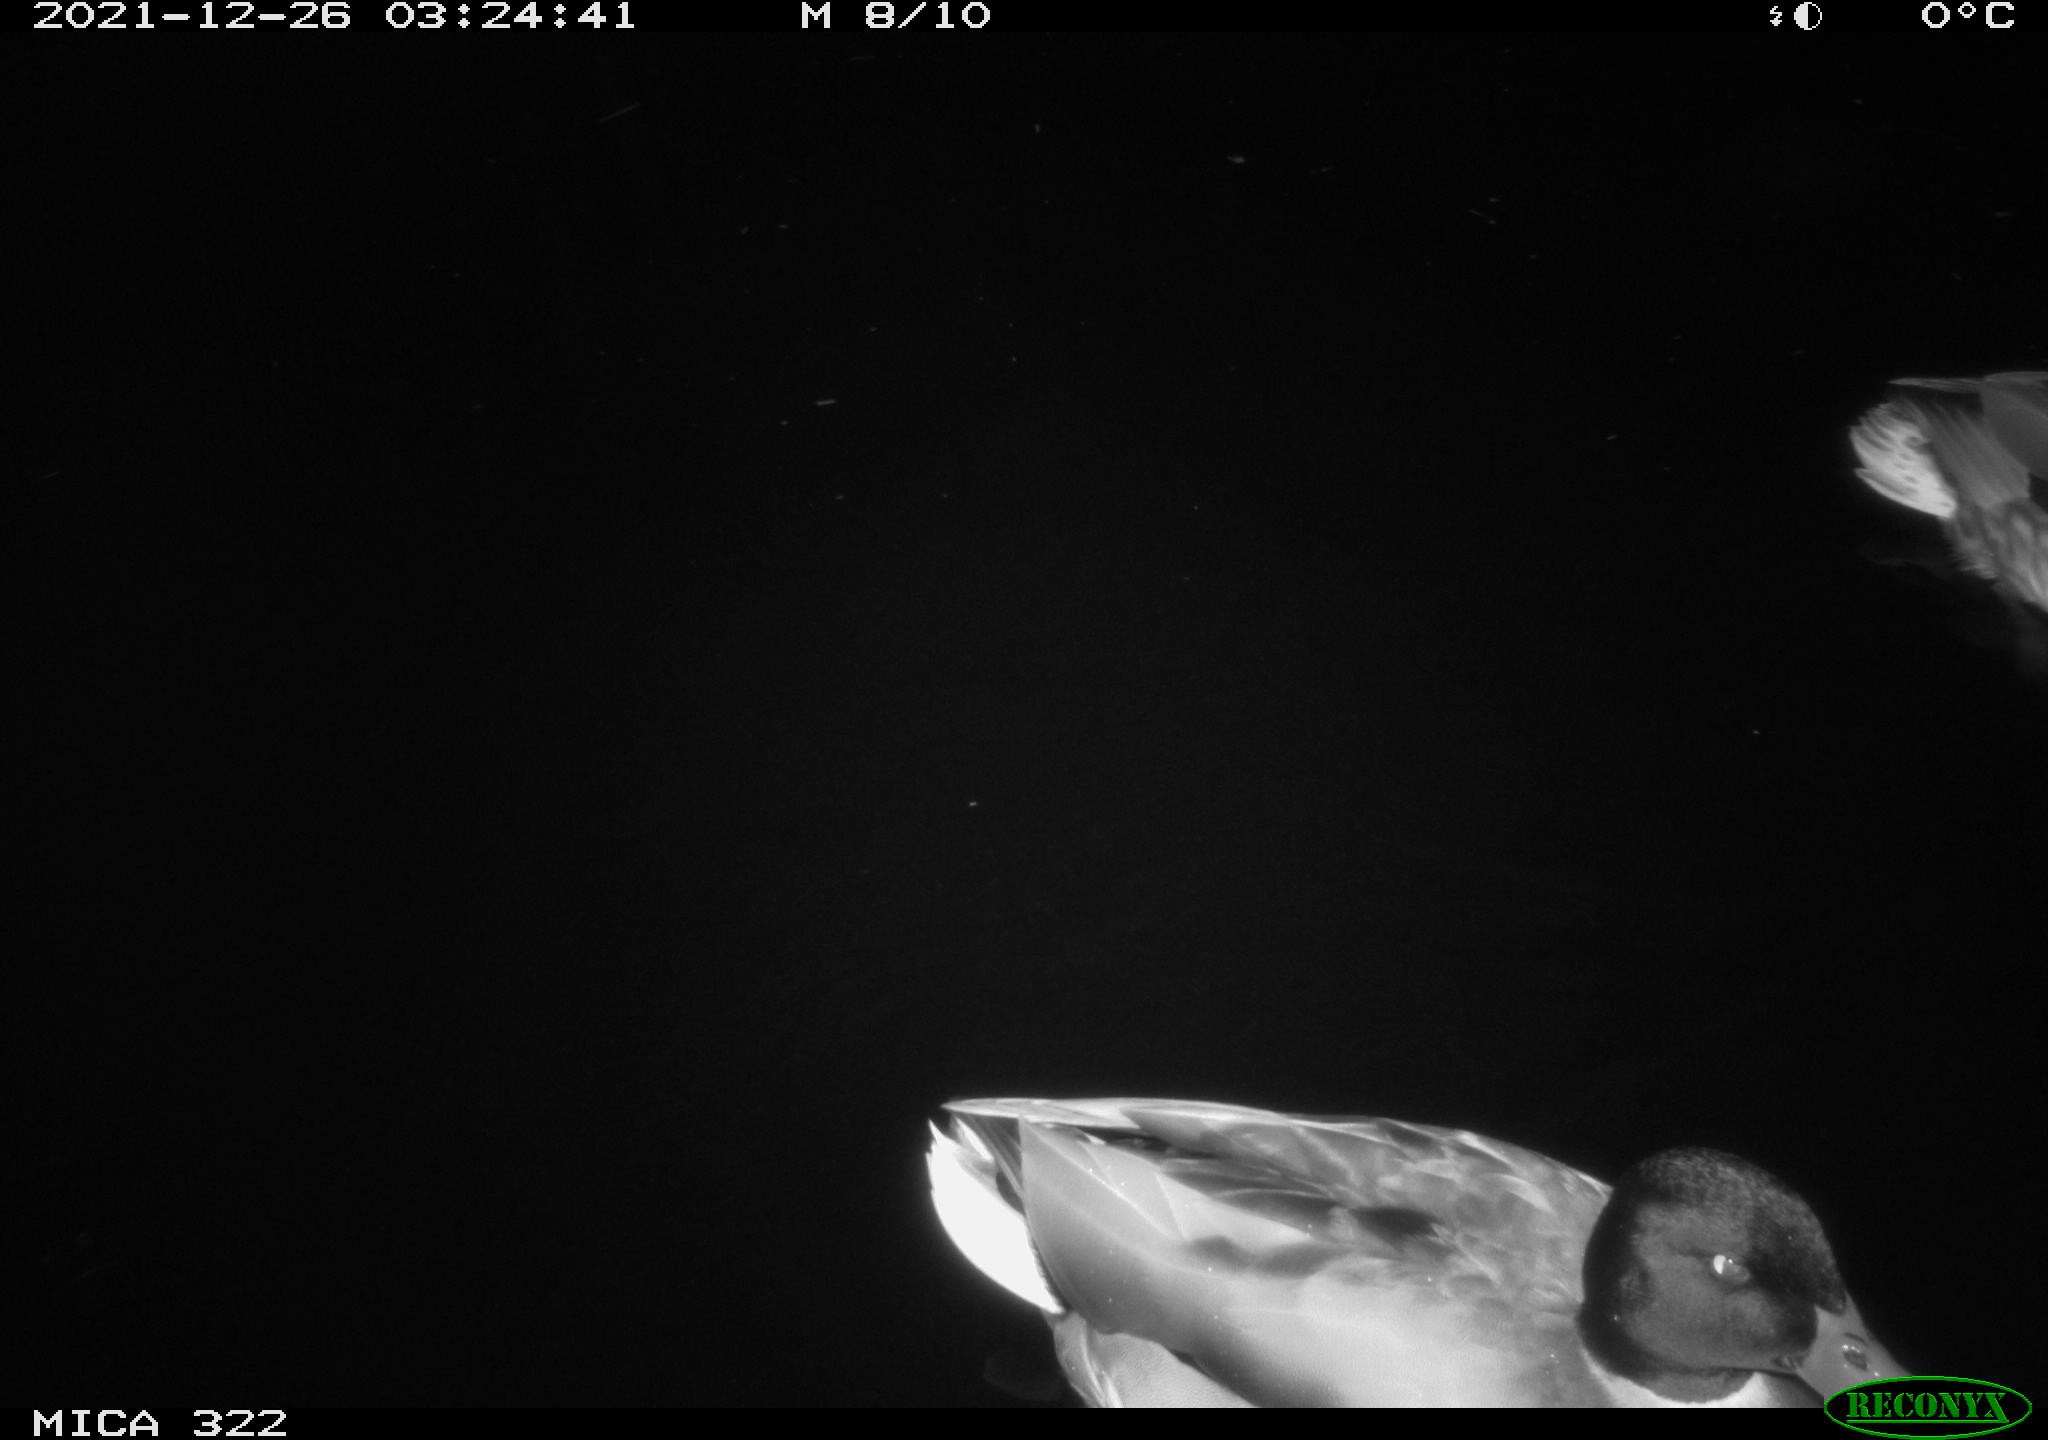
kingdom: Animalia
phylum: Chordata
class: Aves
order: Anseriformes
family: Anatidae
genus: Anas
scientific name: Anas
